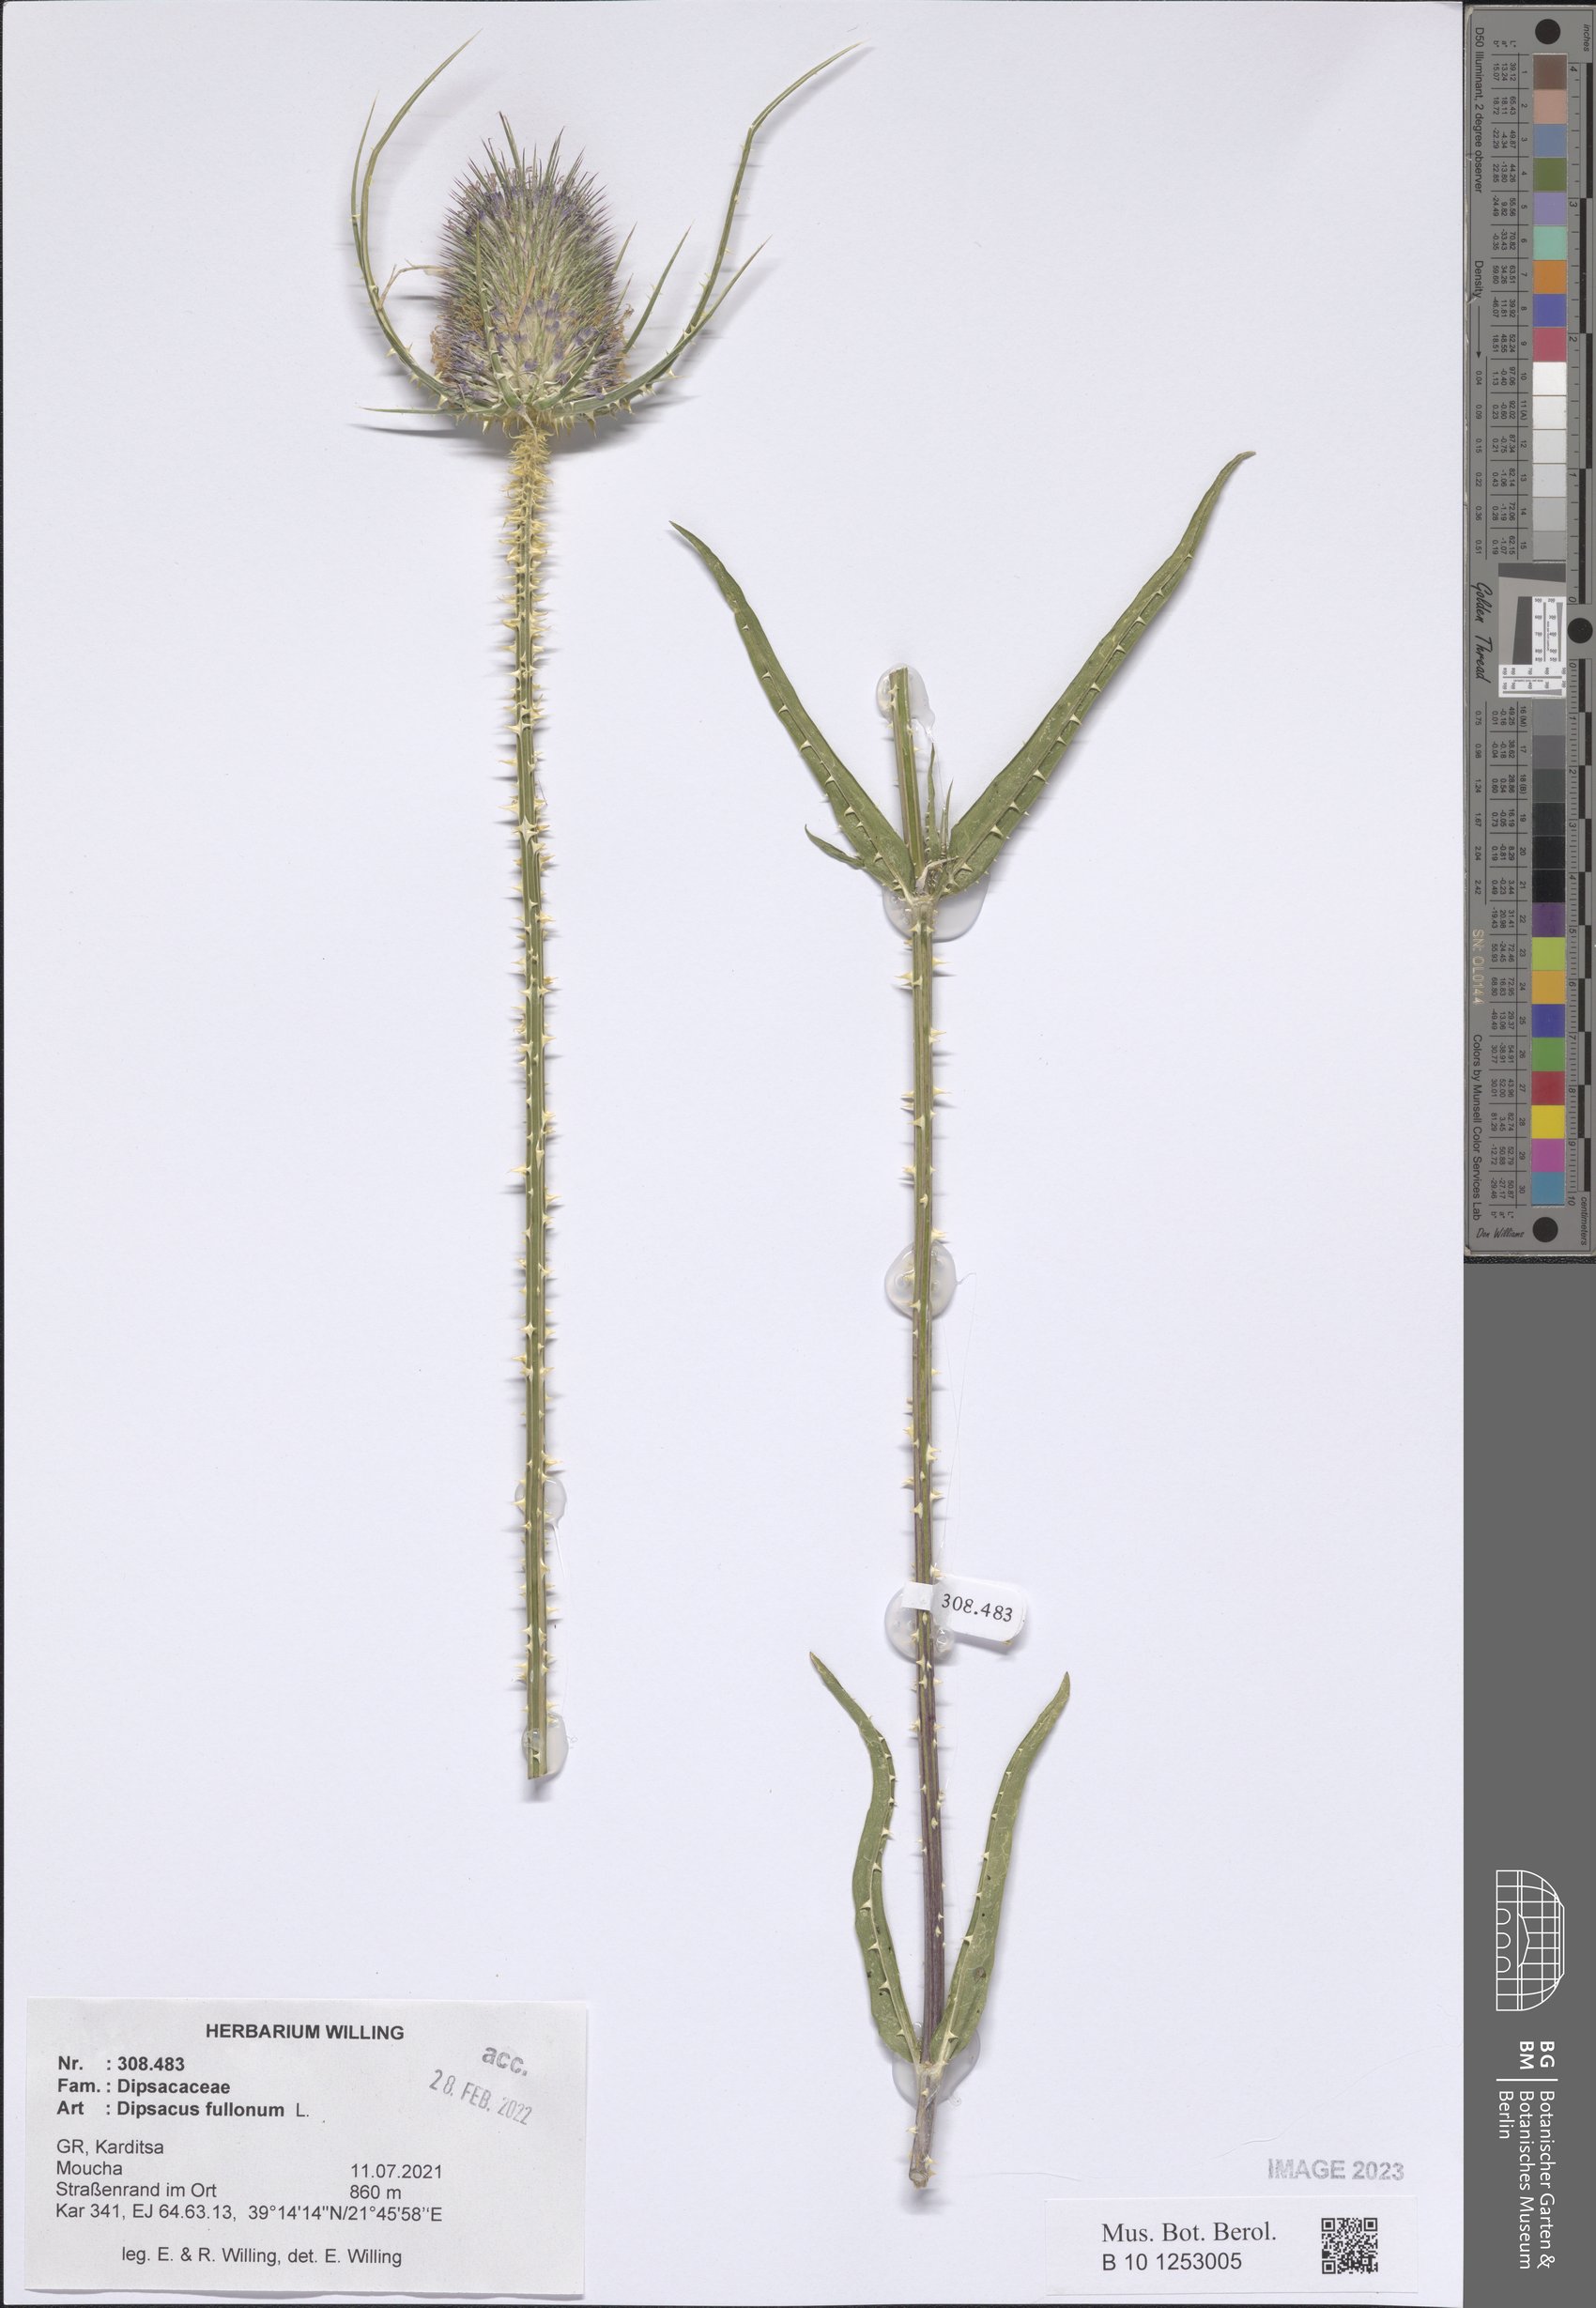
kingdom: Plantae
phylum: Tracheophyta
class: Magnoliopsida
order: Dipsacales
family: Caprifoliaceae
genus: Dipsacus
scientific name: Dipsacus fullonum
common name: Teasel
